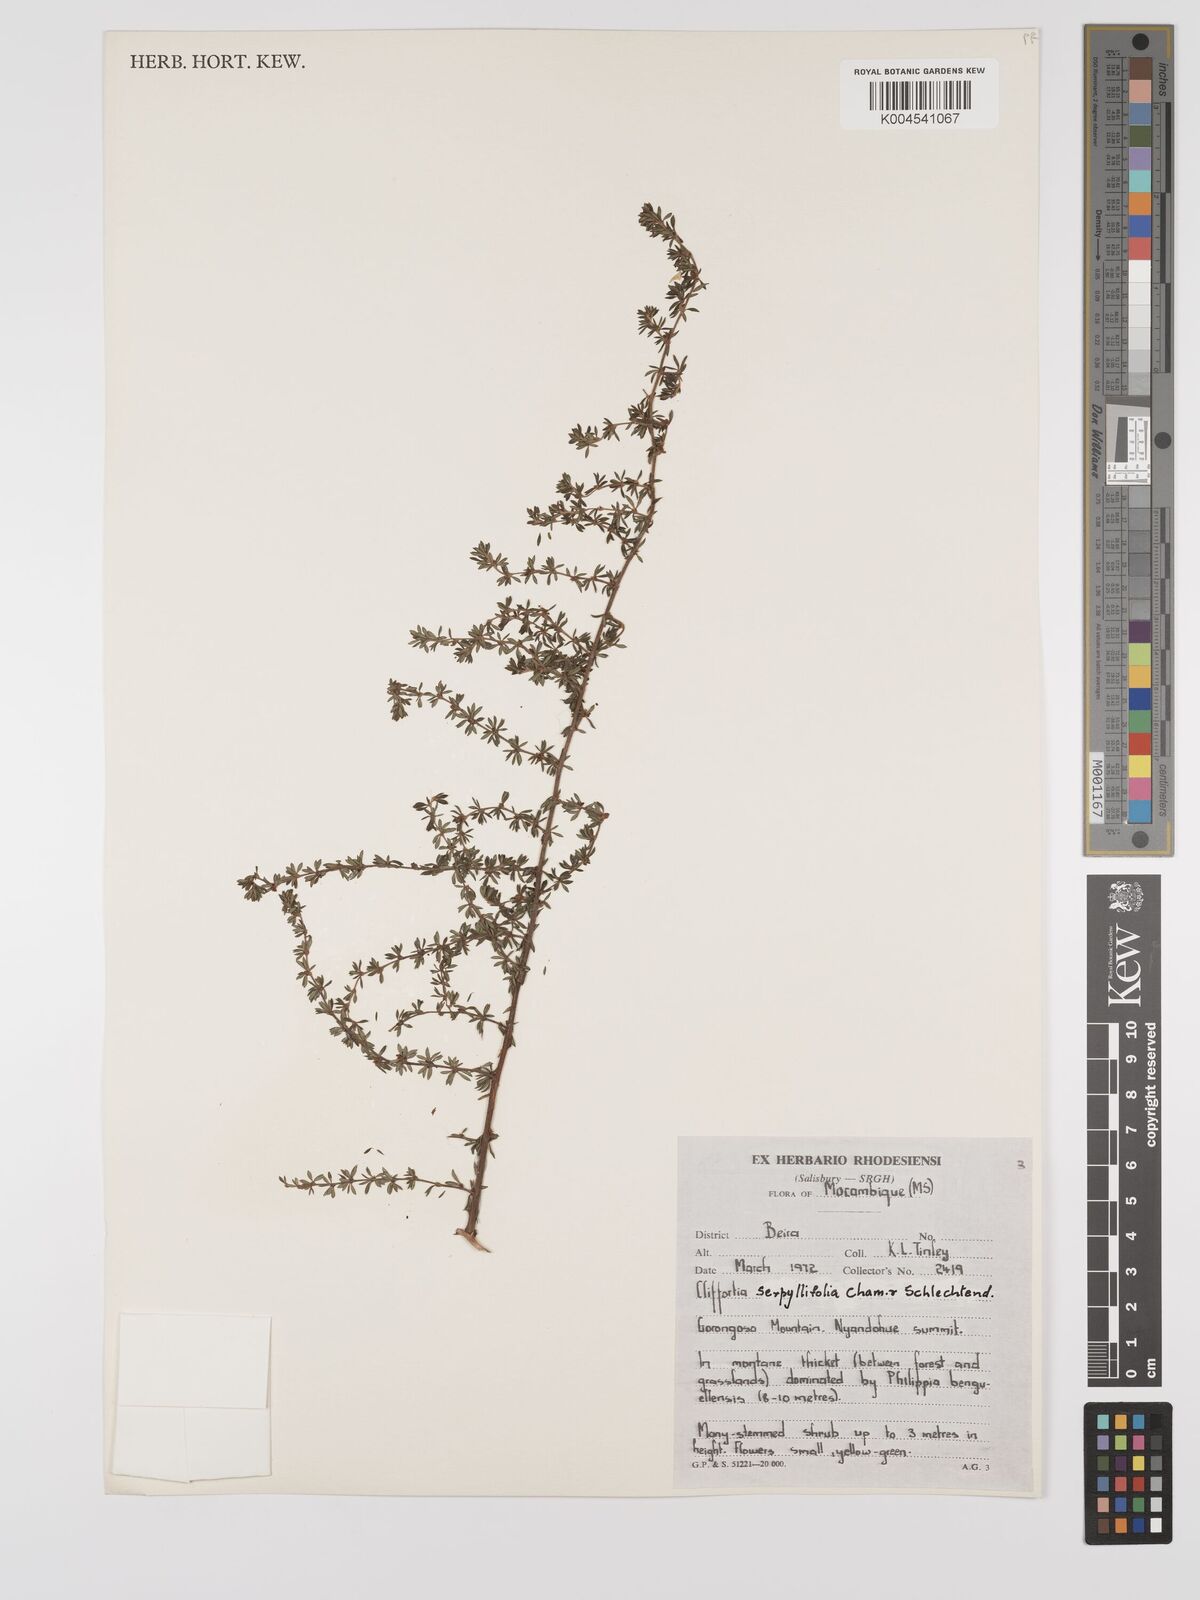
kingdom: Plantae
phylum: Tracheophyta
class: Magnoliopsida
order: Rosales
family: Rosaceae
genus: Cliffortia
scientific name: Cliffortia serpyllifolia
